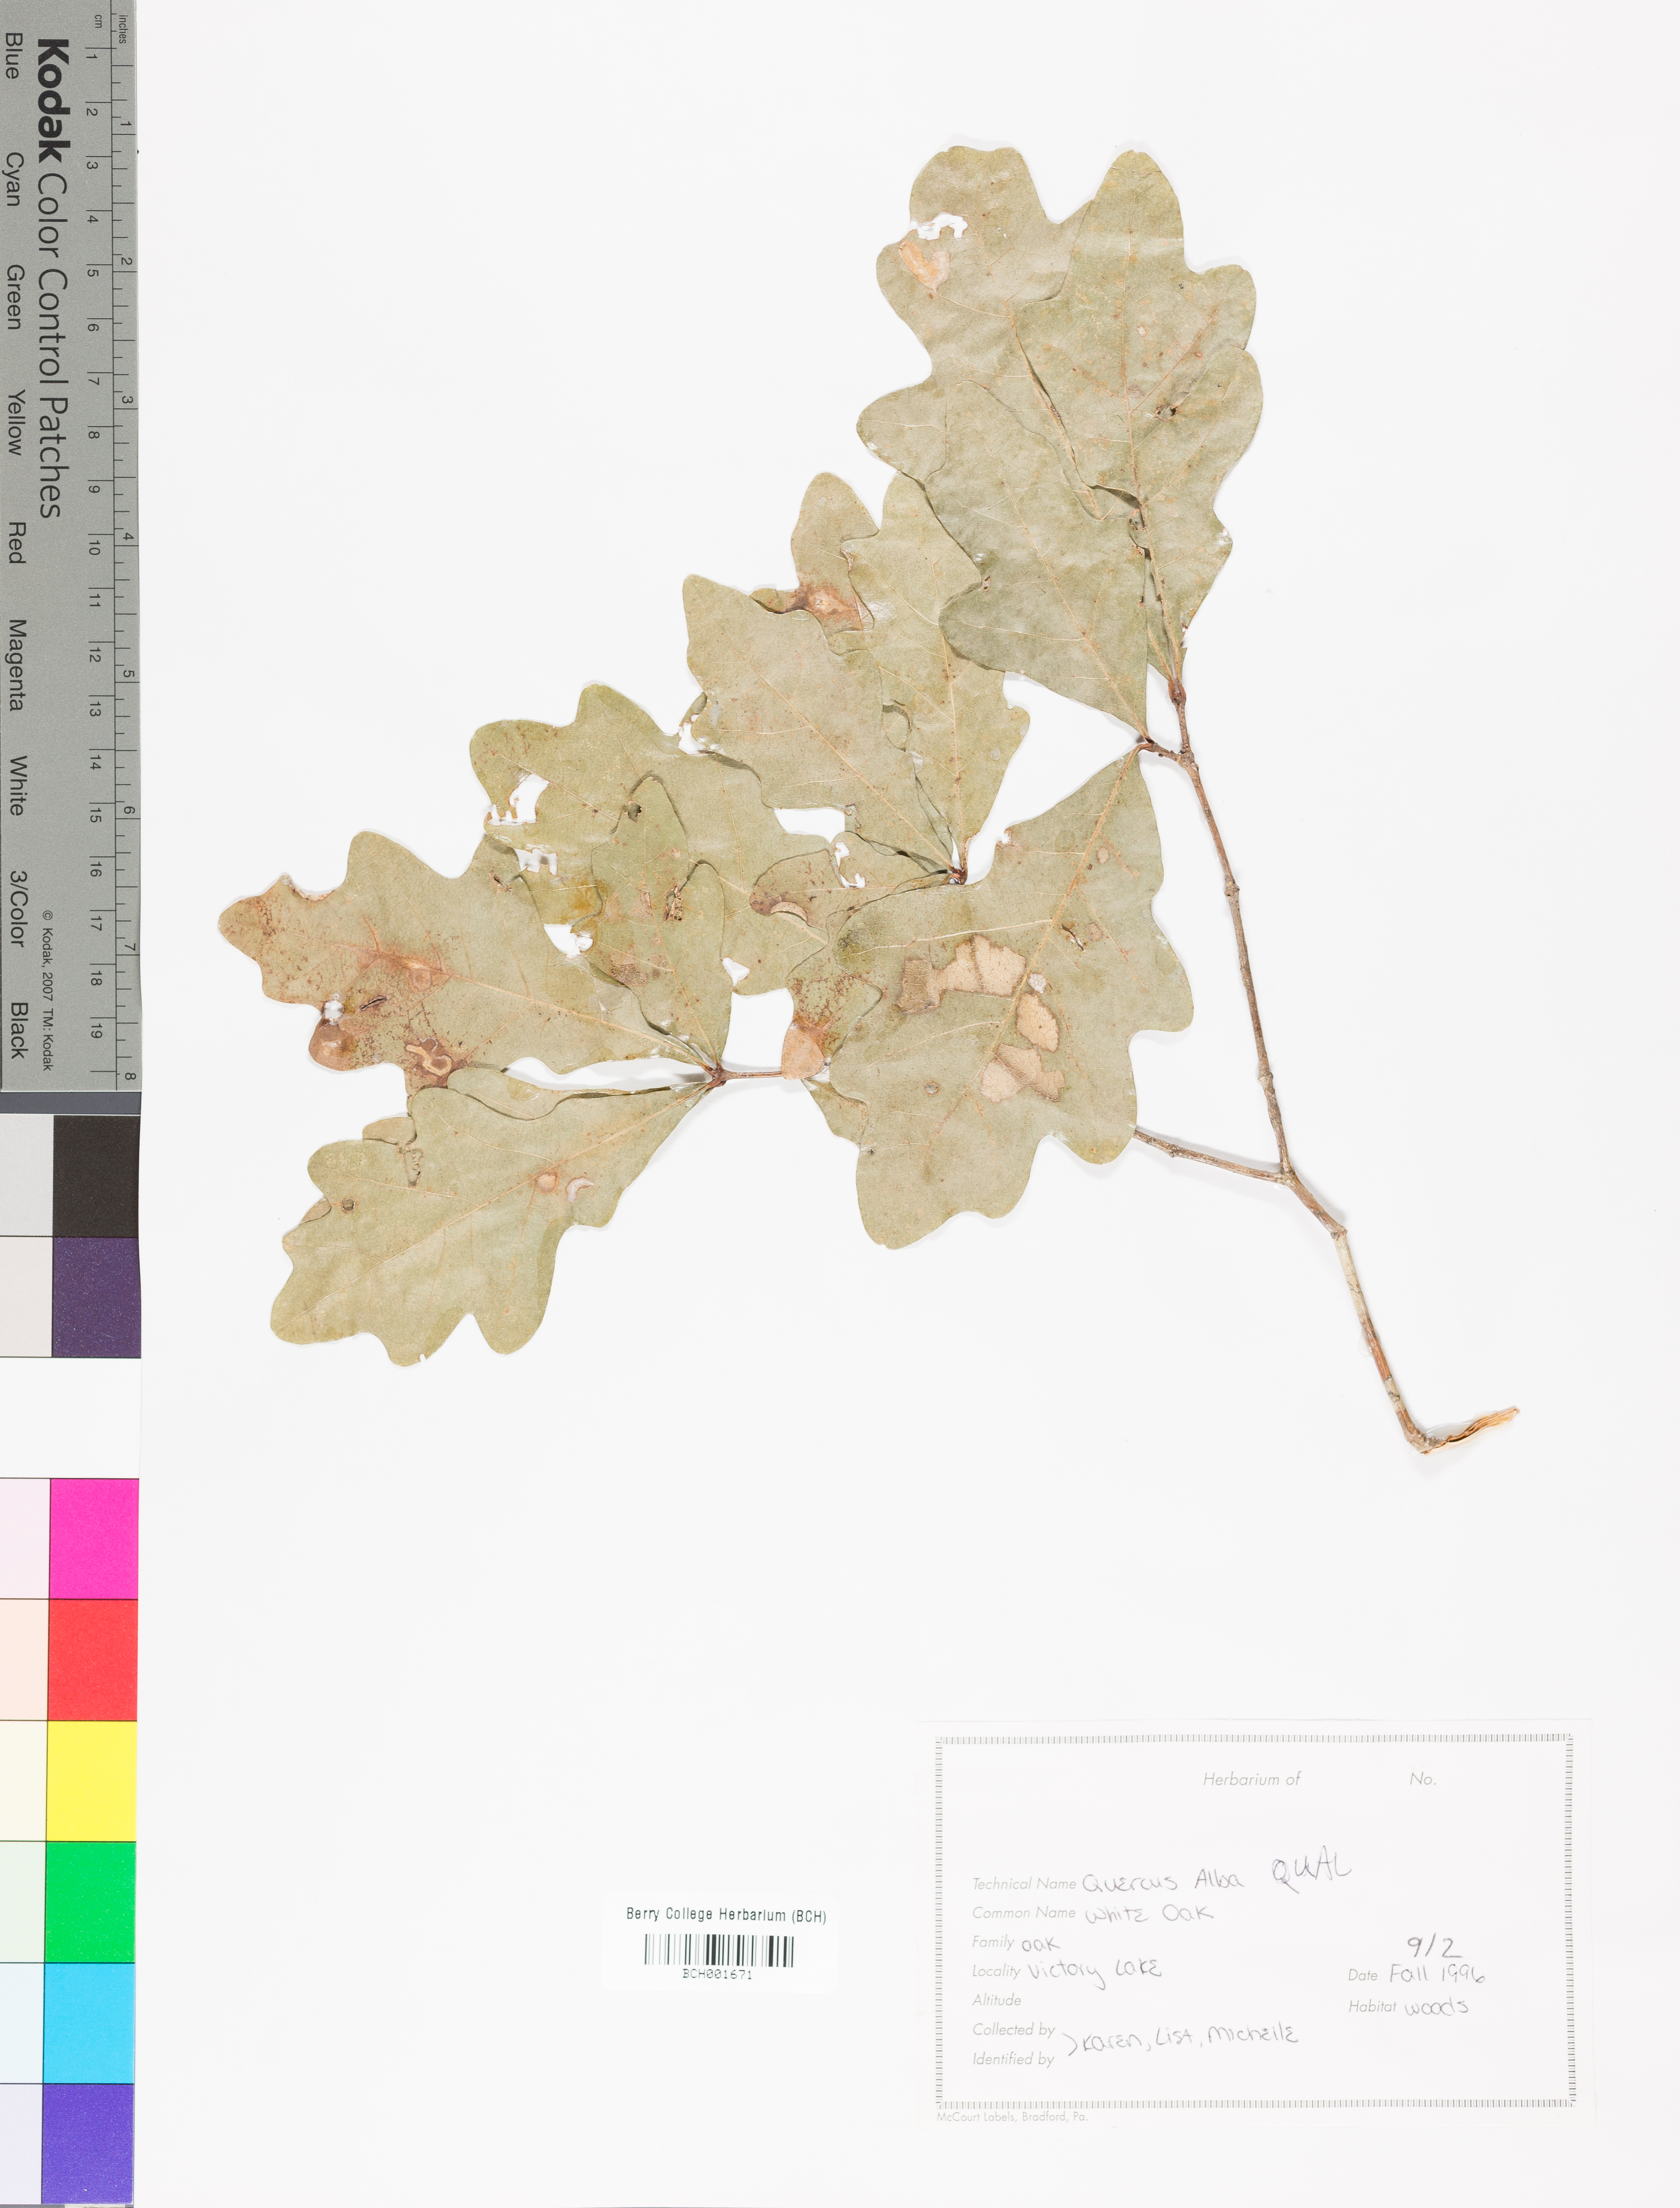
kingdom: Plantae
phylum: Tracheophyta
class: Magnoliopsida
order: Fagales
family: Fagaceae
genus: Quercus
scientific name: Quercus alba
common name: White oak
